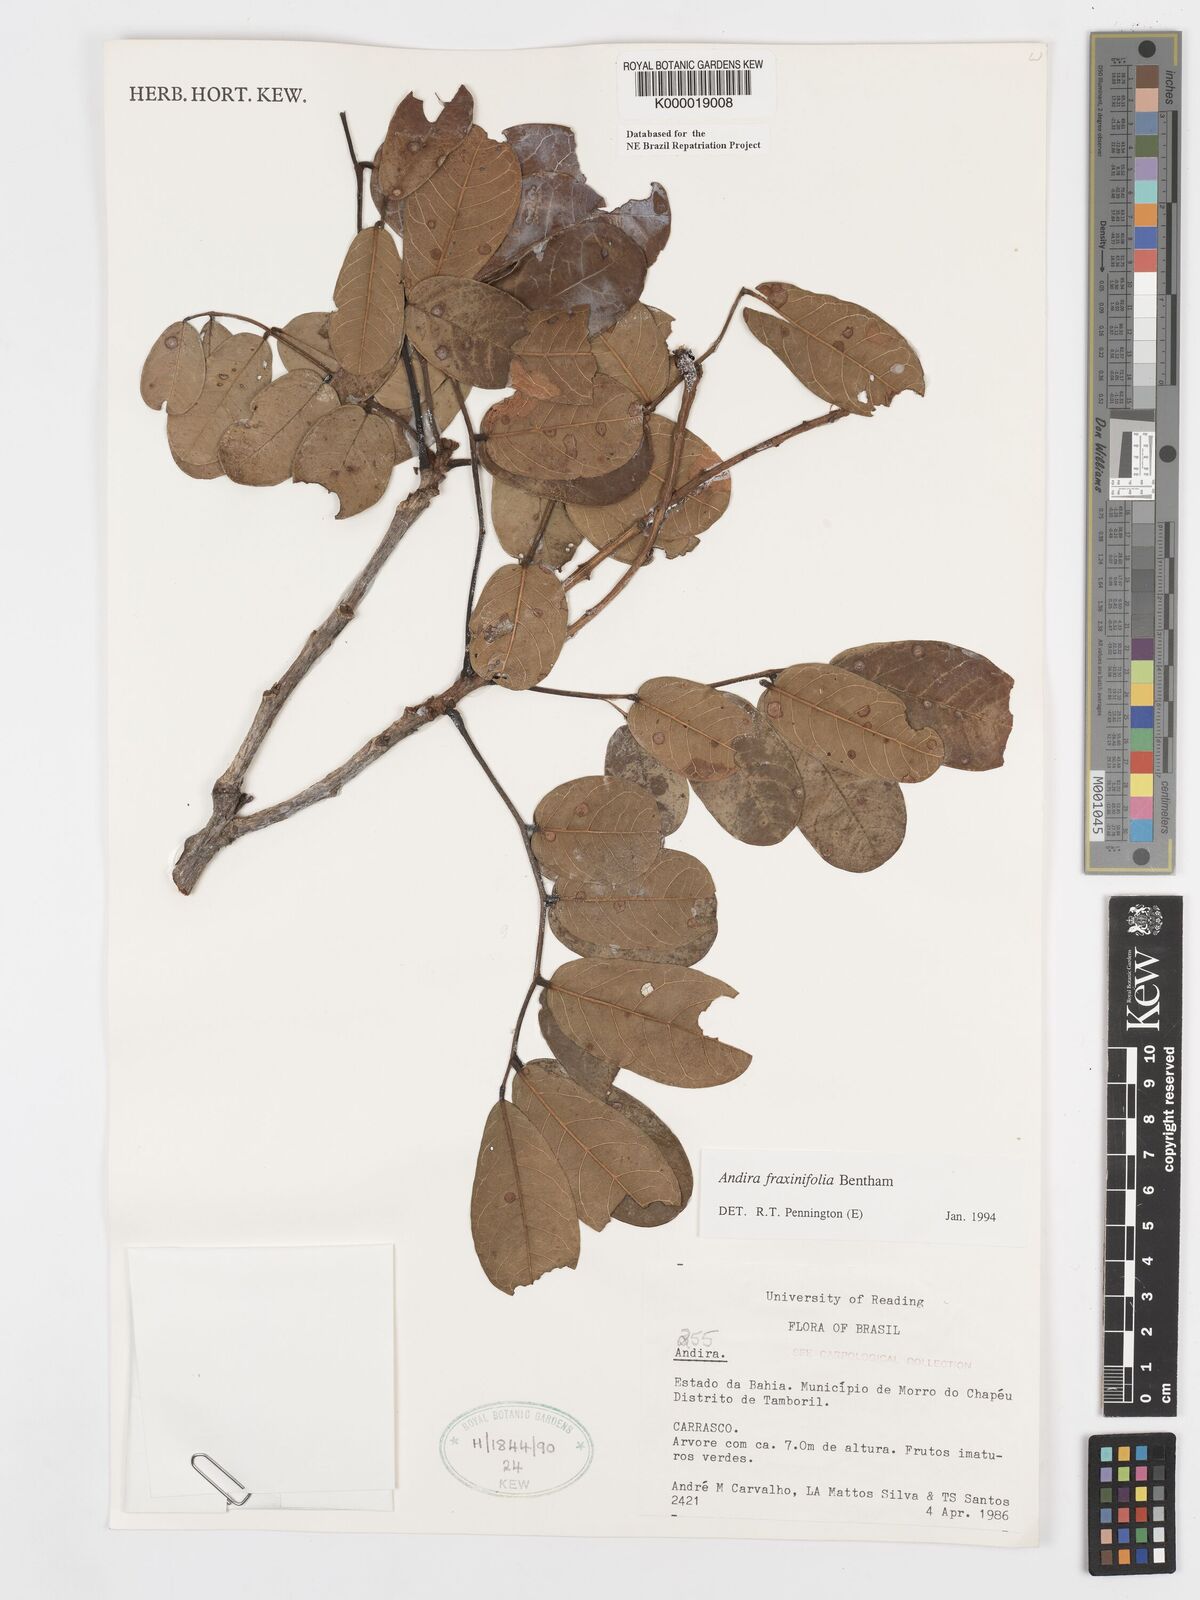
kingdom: Plantae
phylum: Tracheophyta
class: Magnoliopsida
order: Fabales
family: Fabaceae
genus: Andira
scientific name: Andira fraxinifolia
